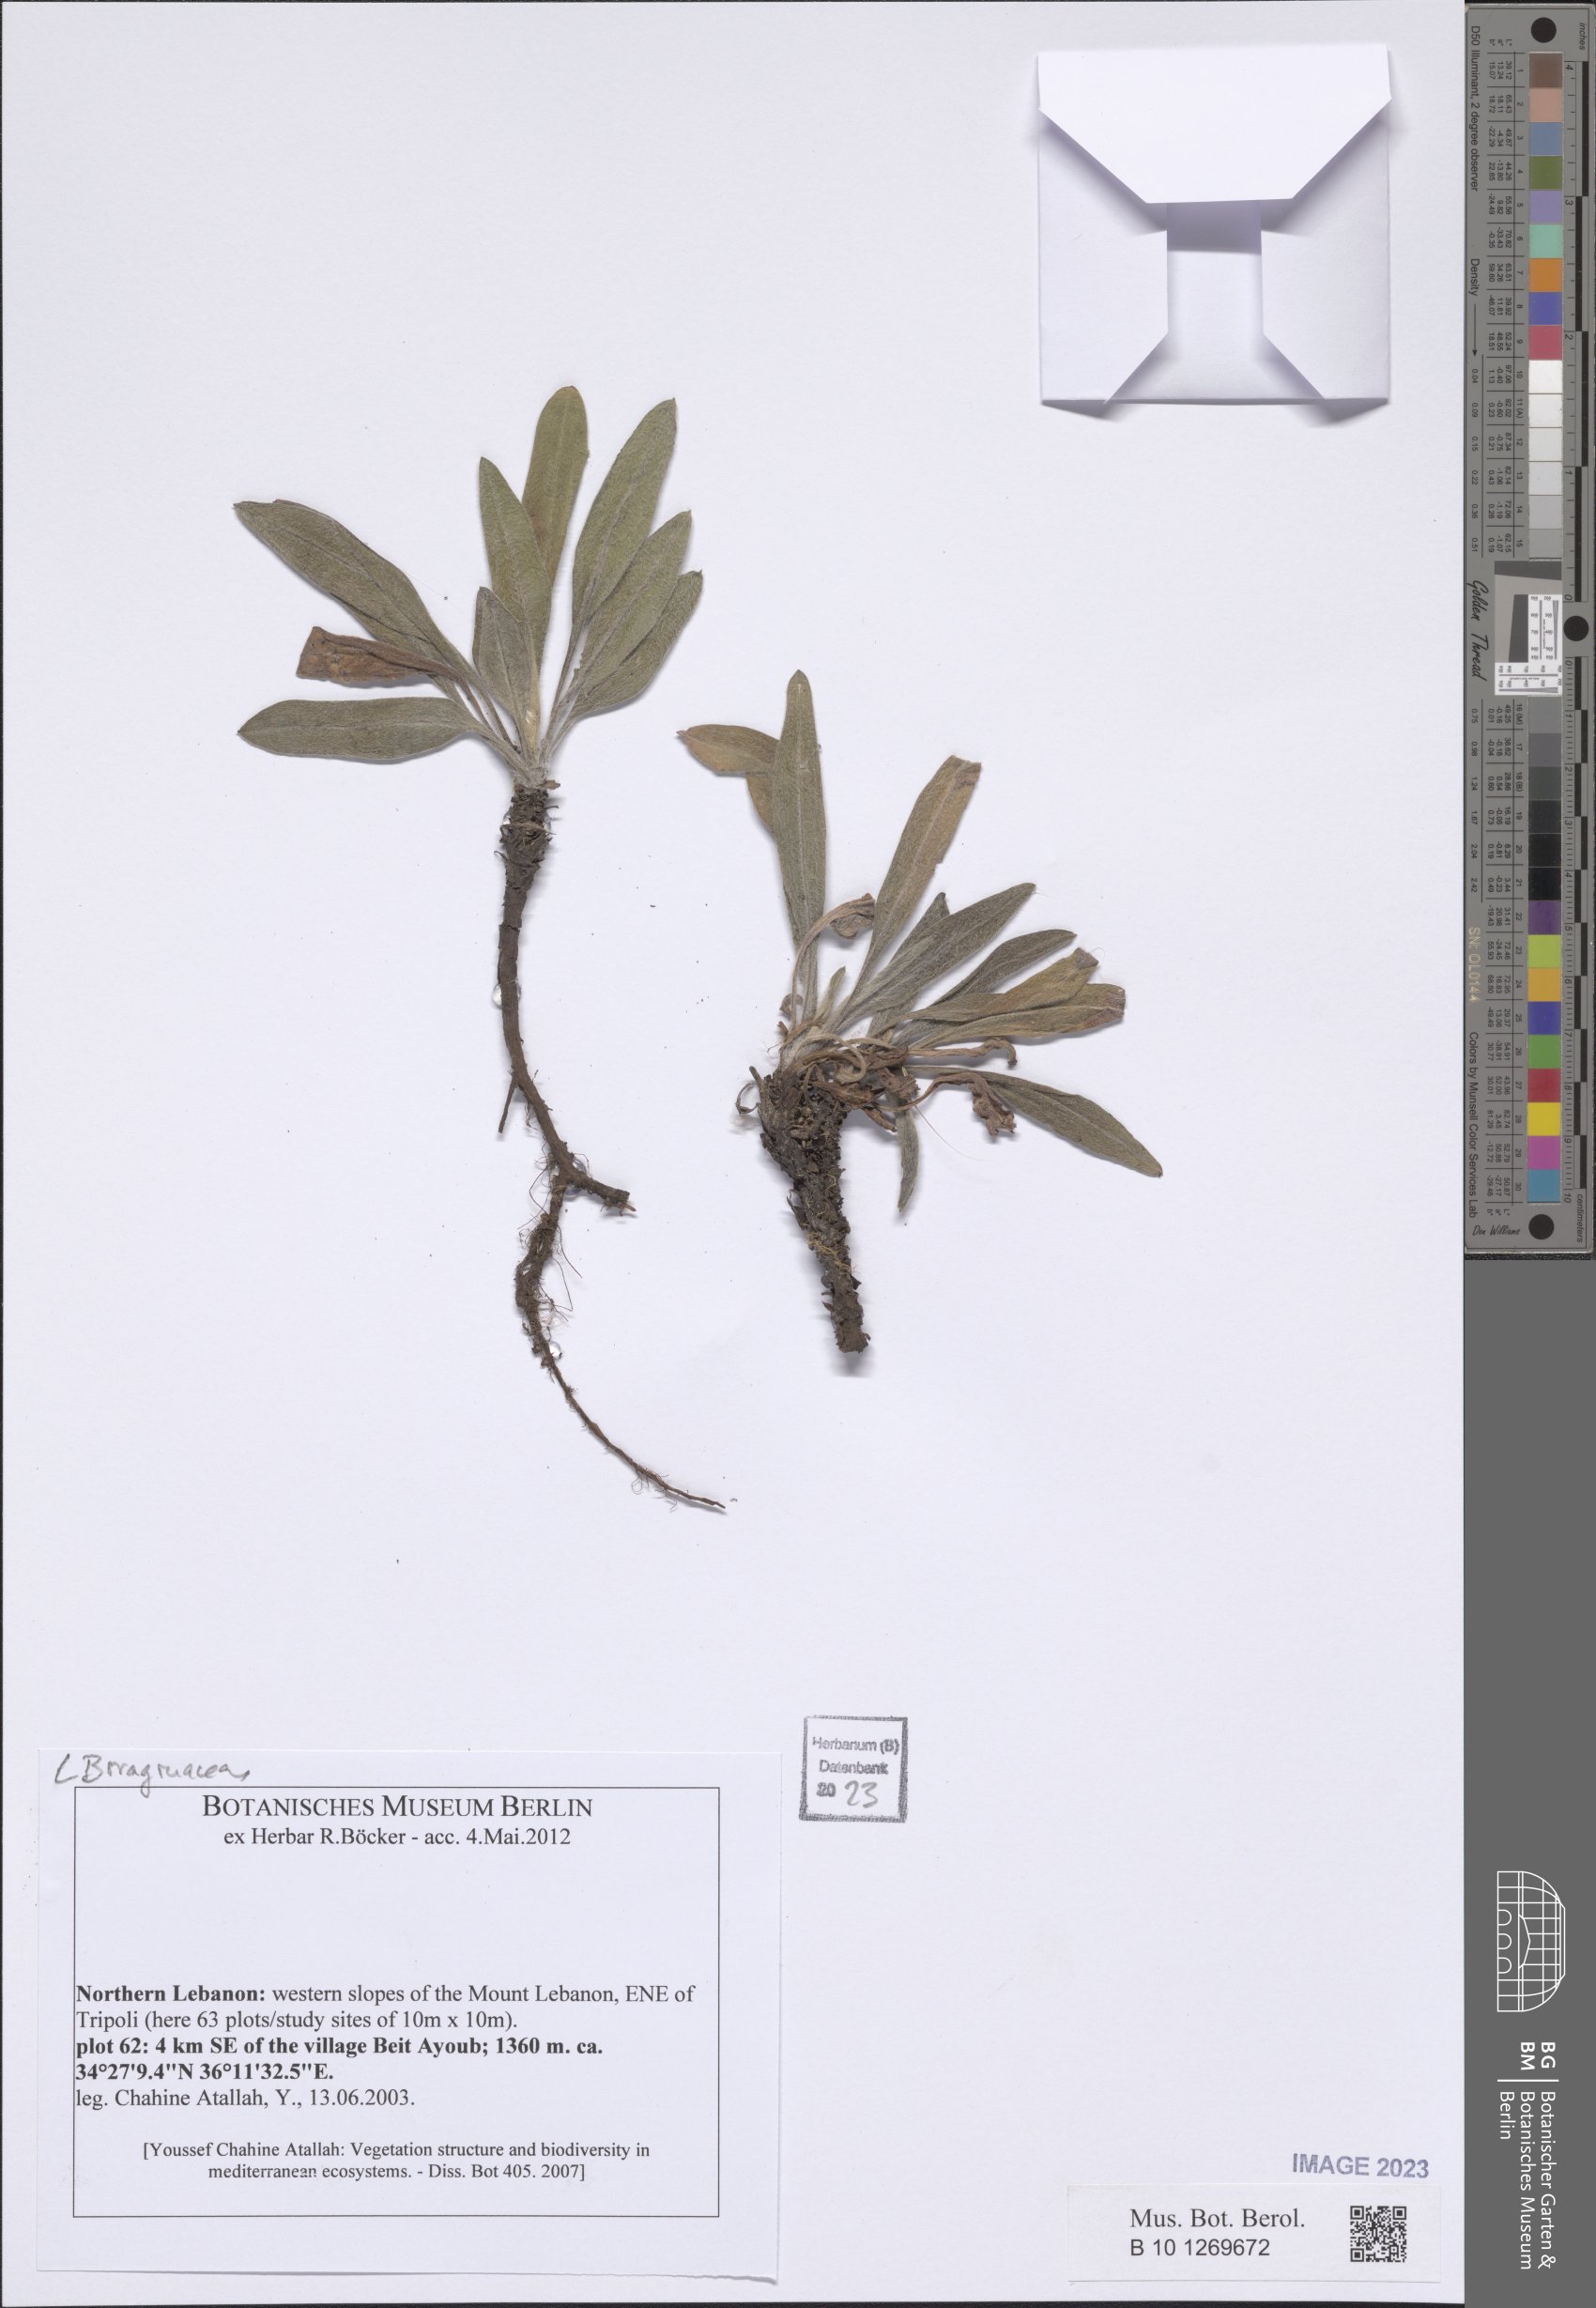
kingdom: Plantae
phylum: Tracheophyta
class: Magnoliopsida
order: Boraginales
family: Boraginaceae
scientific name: Boraginaceae
